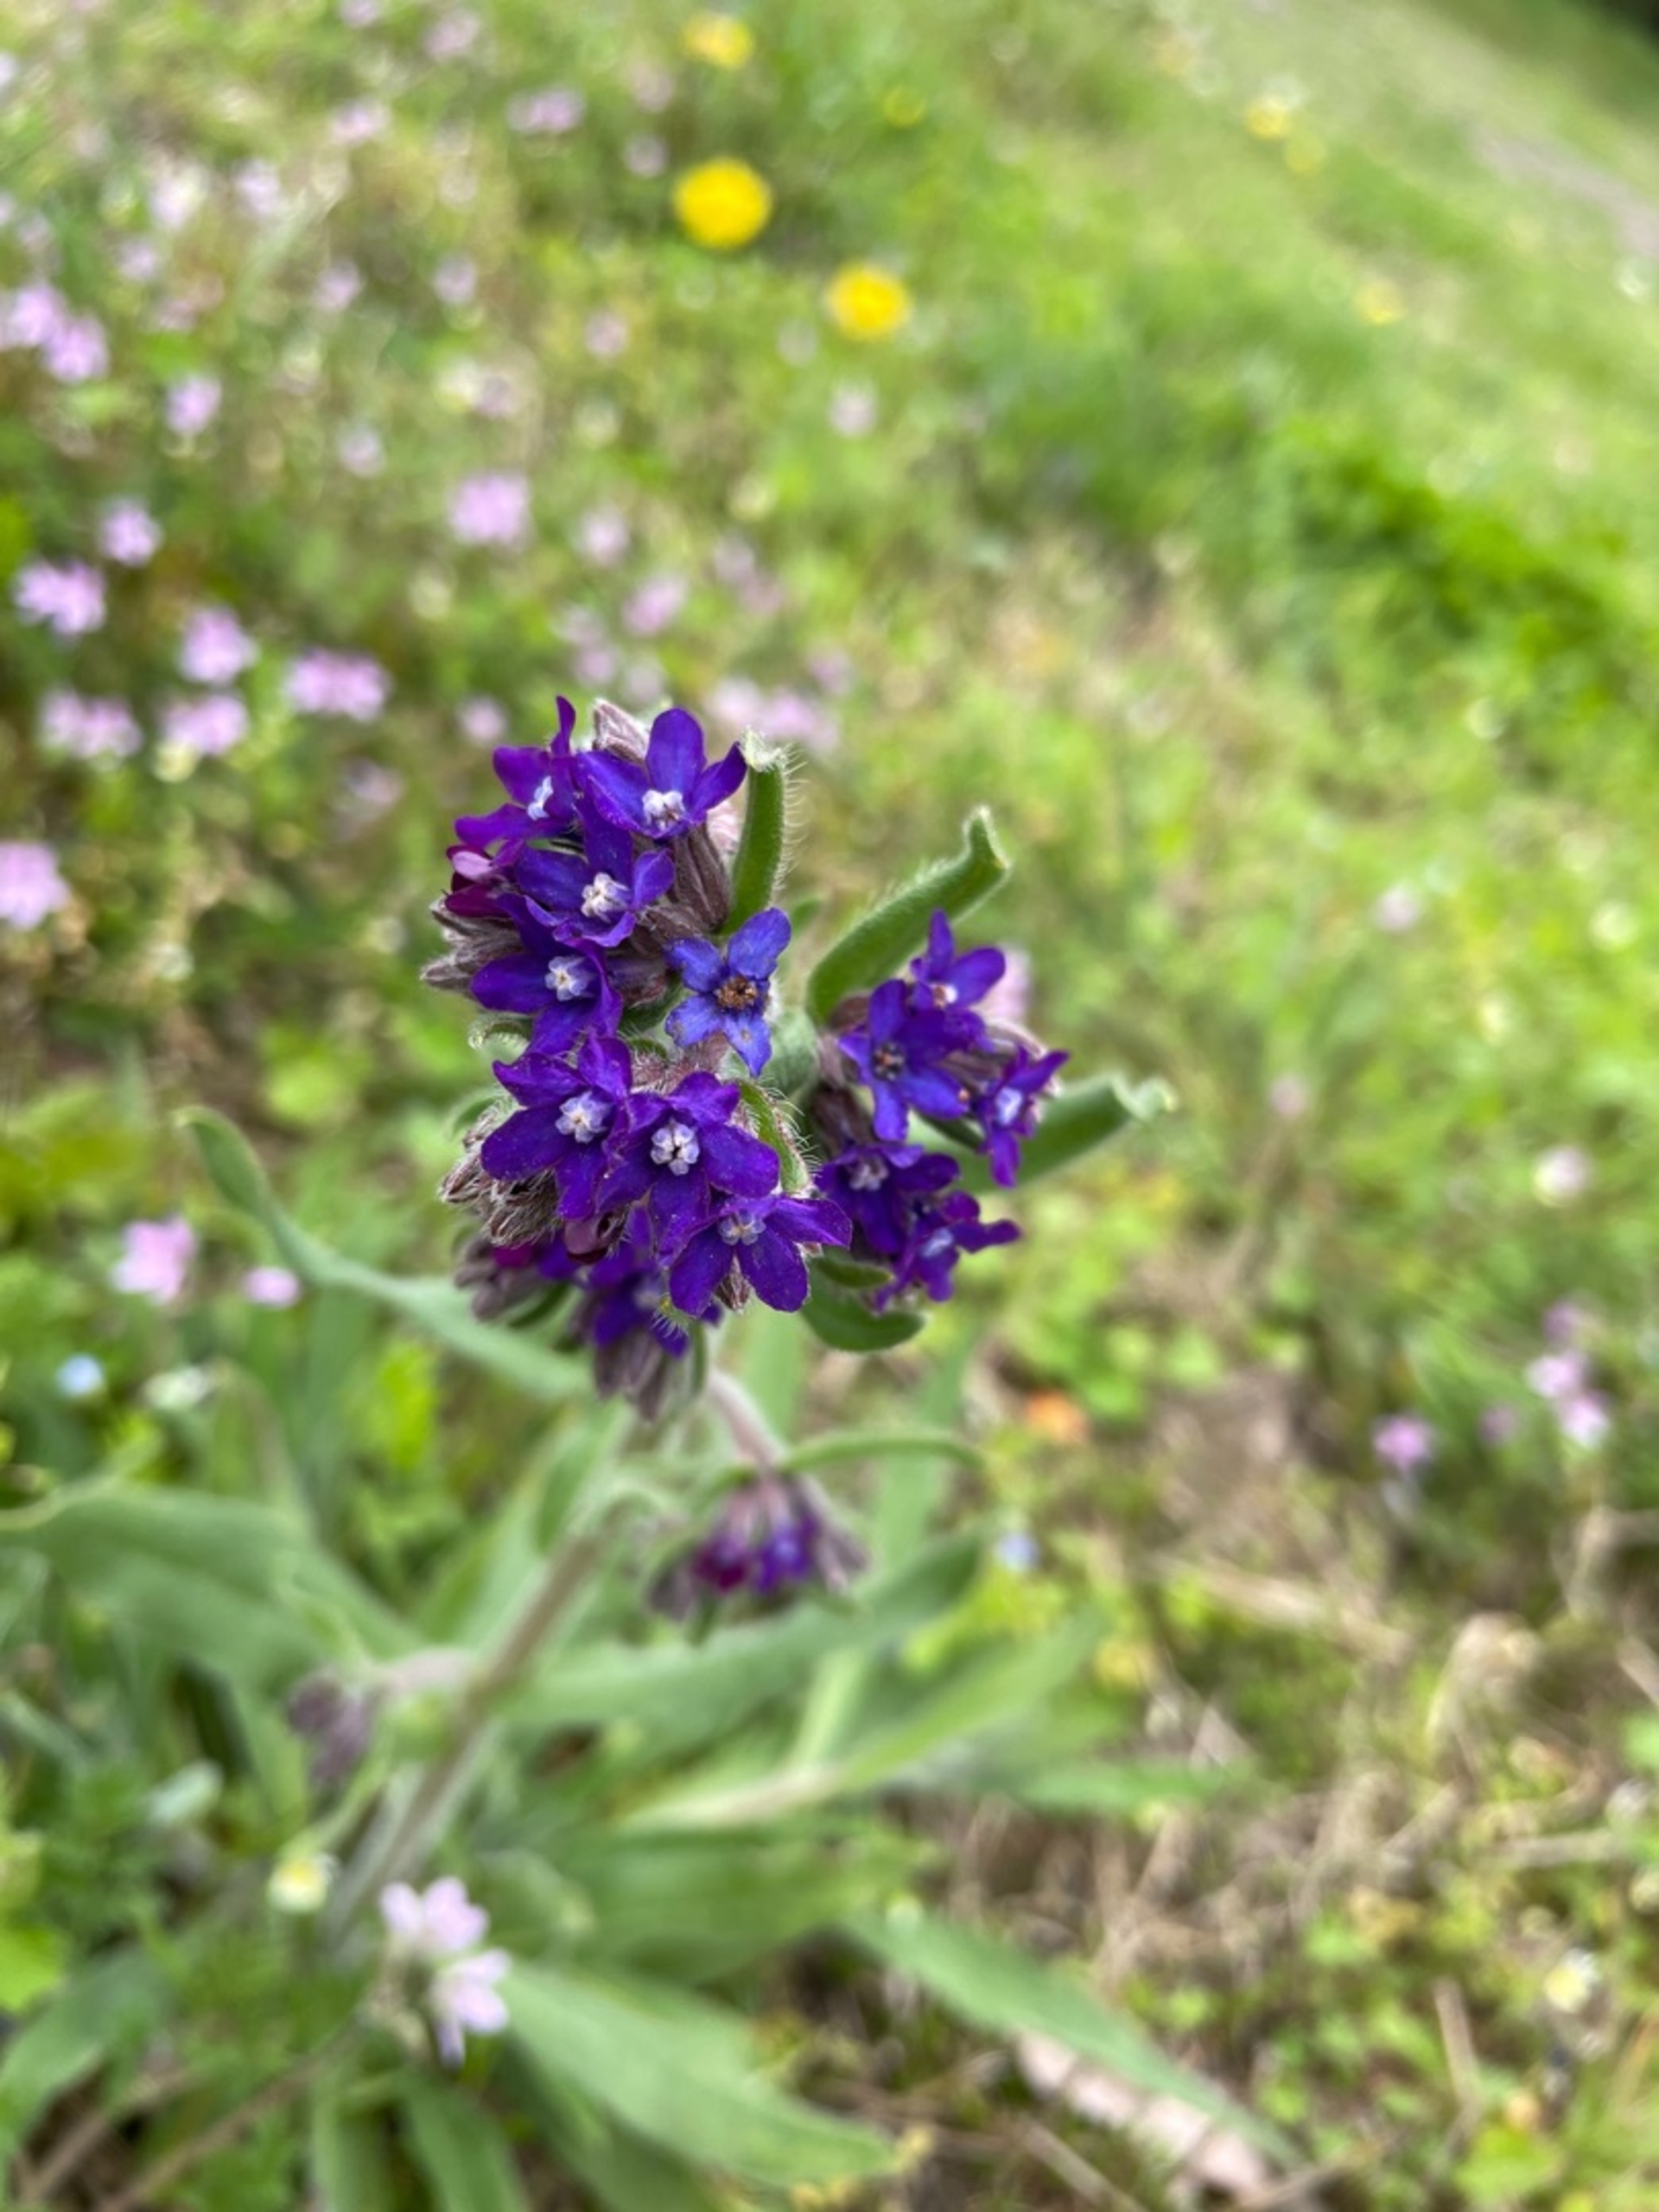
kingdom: Plantae
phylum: Tracheophyta
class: Magnoliopsida
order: Boraginales
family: Boraginaceae
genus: Anchusa
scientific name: Anchusa officinalis
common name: Læge-oksetunge
